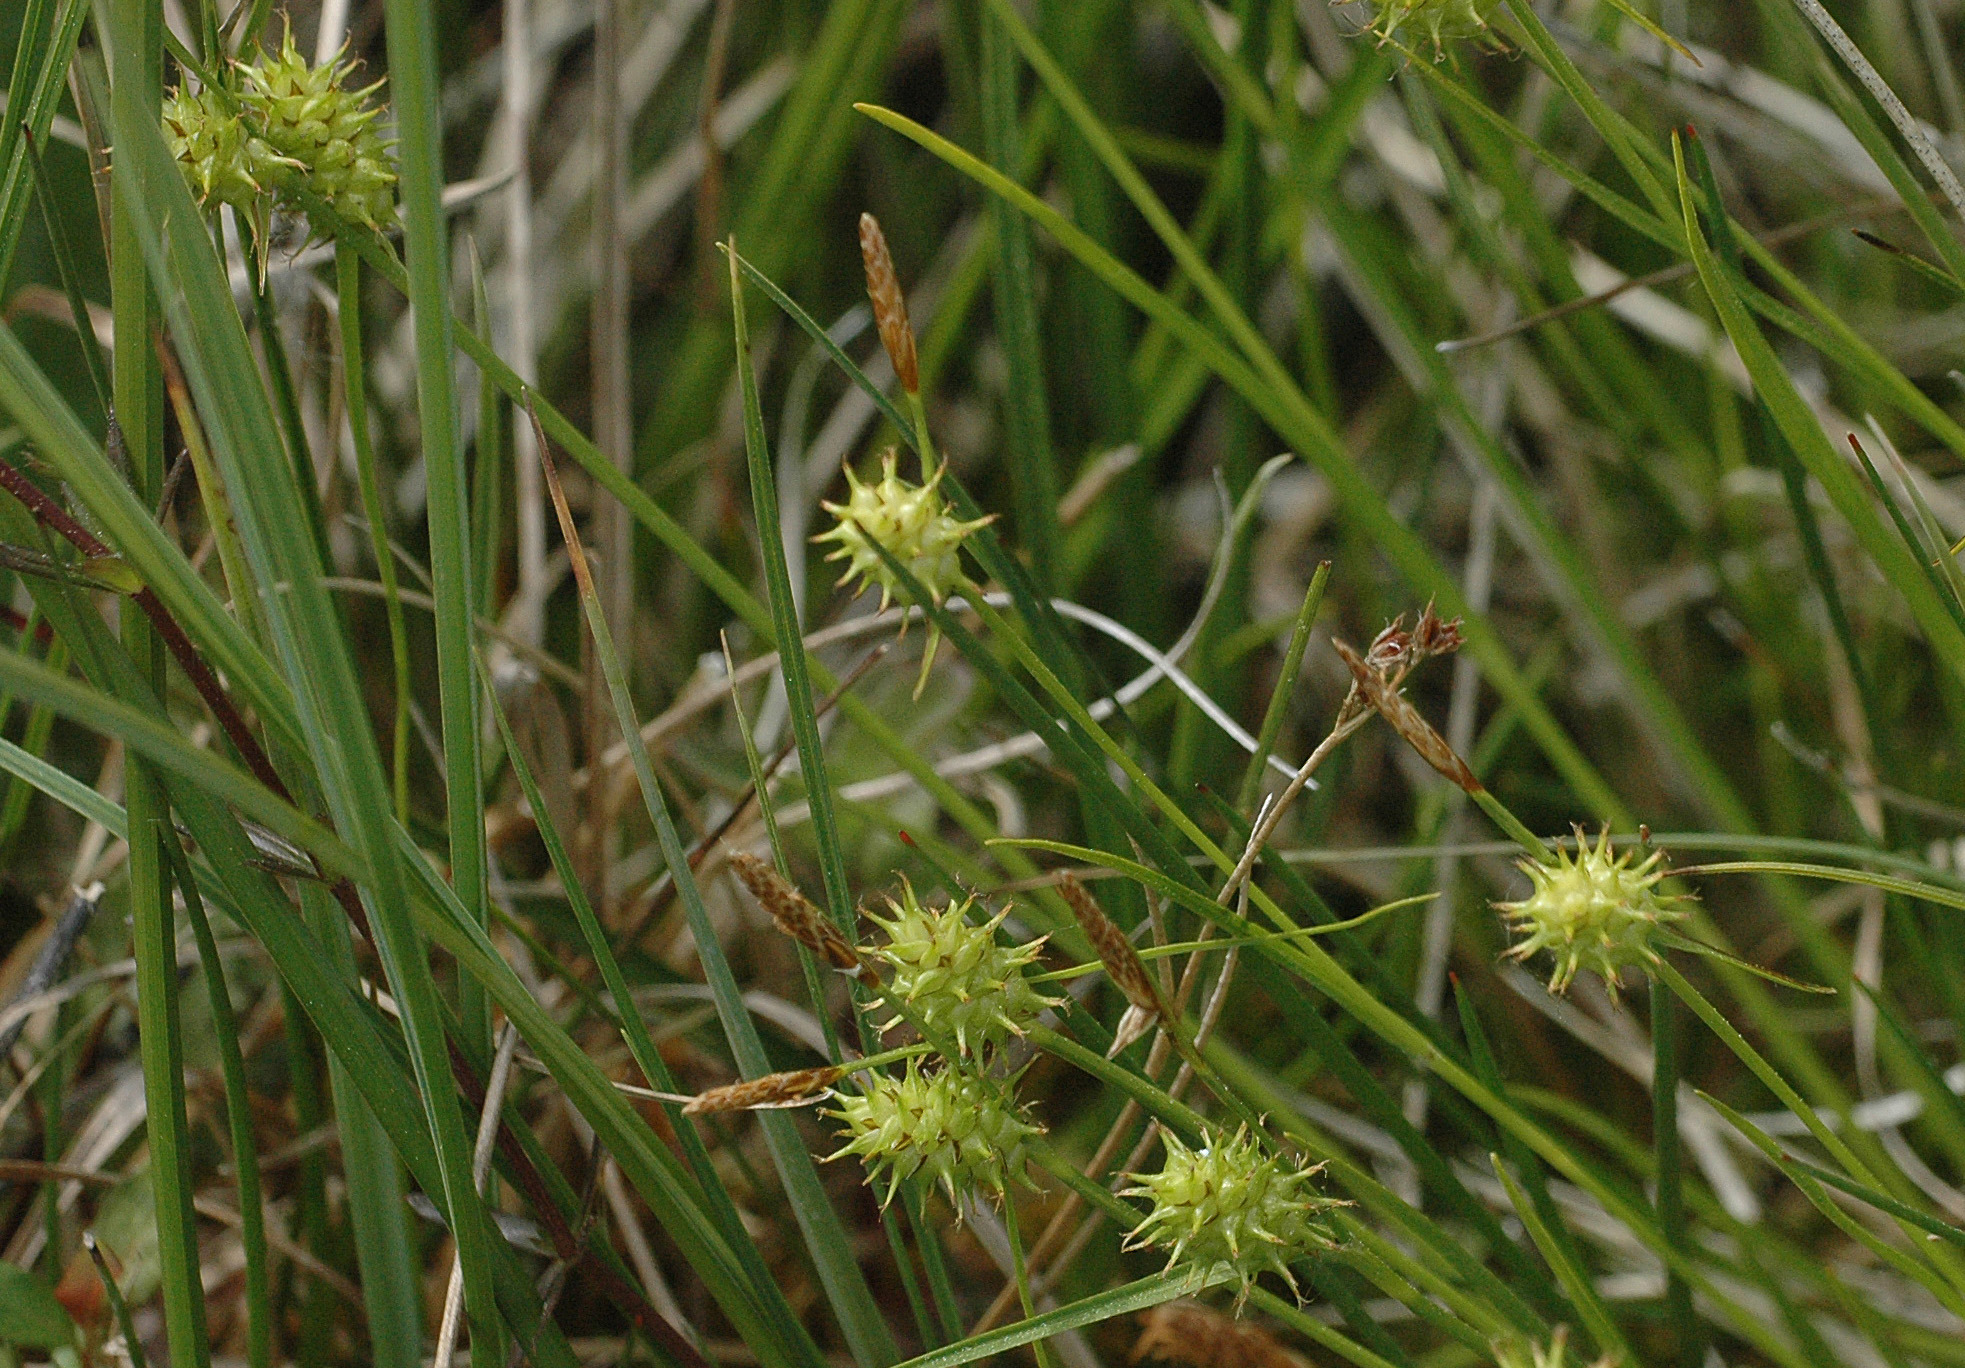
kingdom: Plantae
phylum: Tracheophyta
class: Liliopsida
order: Poales
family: Cyperaceae
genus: Carex
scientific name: Carex lepidocarpa
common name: Krognæb-star
